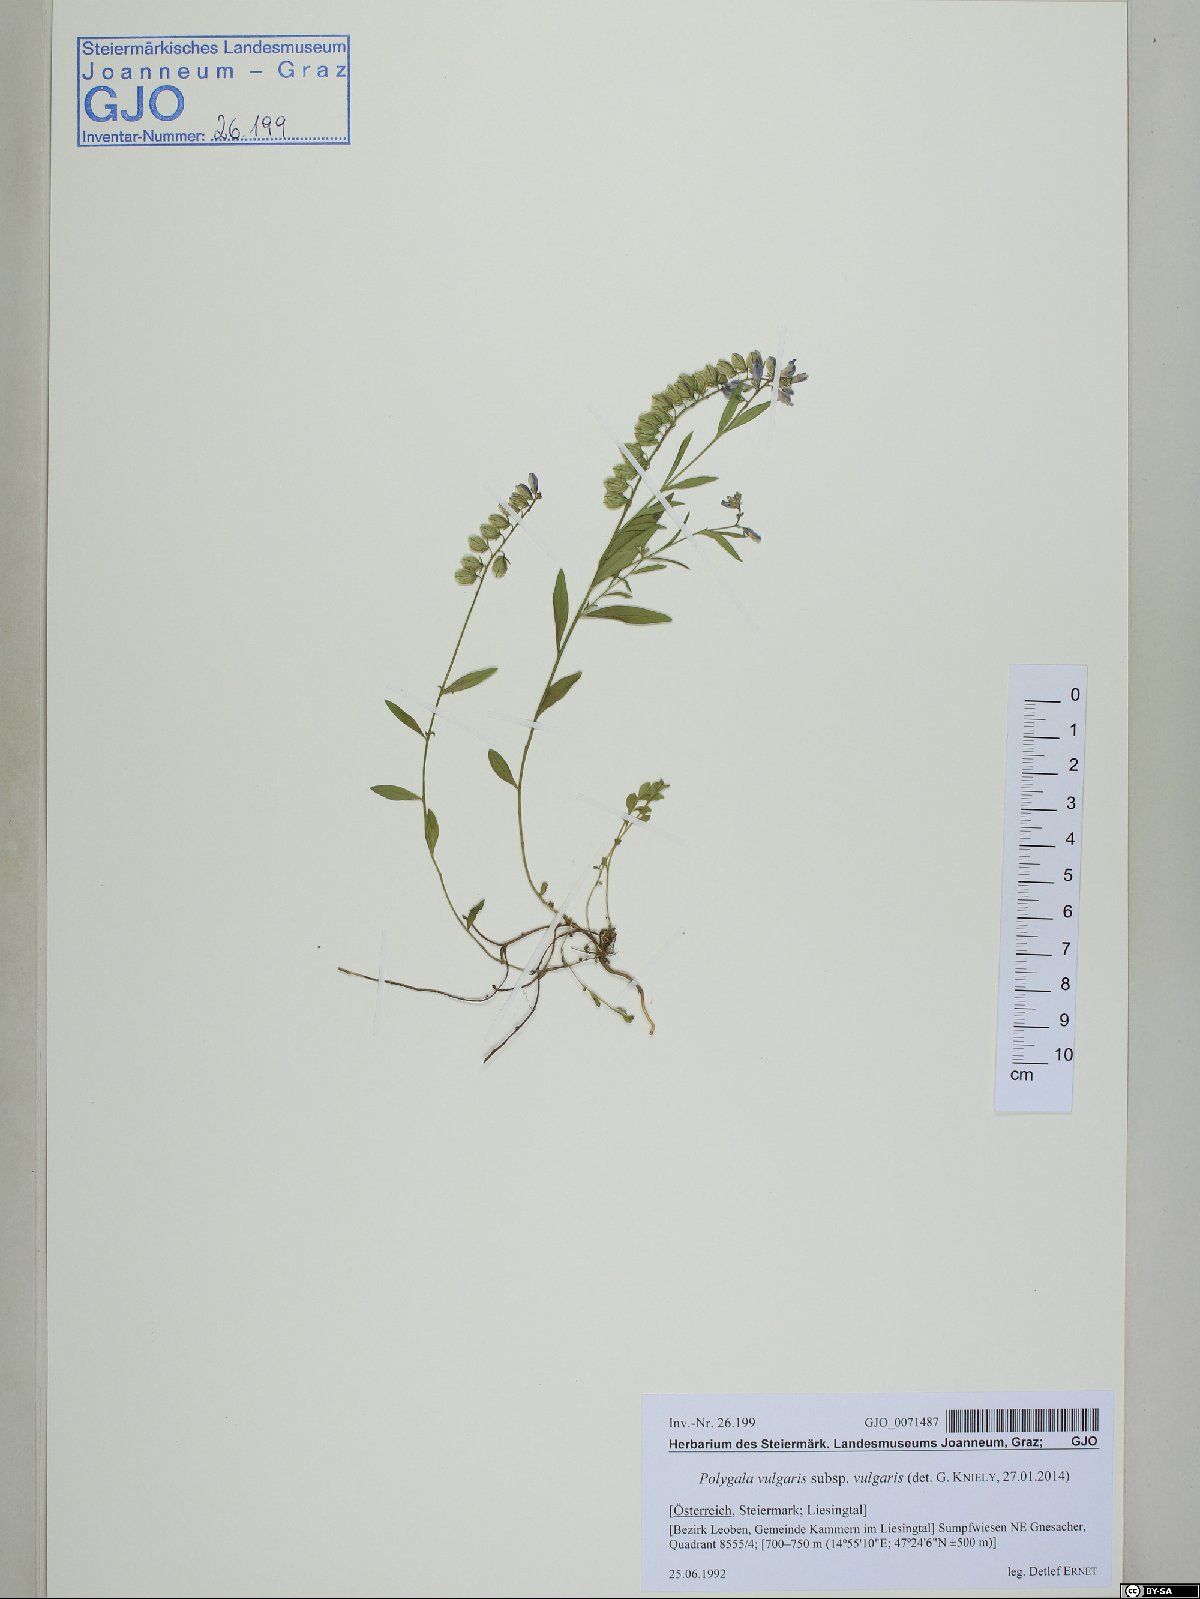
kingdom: Plantae
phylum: Tracheophyta
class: Magnoliopsida
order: Fabales
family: Polygalaceae
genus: Polygala
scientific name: Polygala vulgaris
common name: Common milkwort
